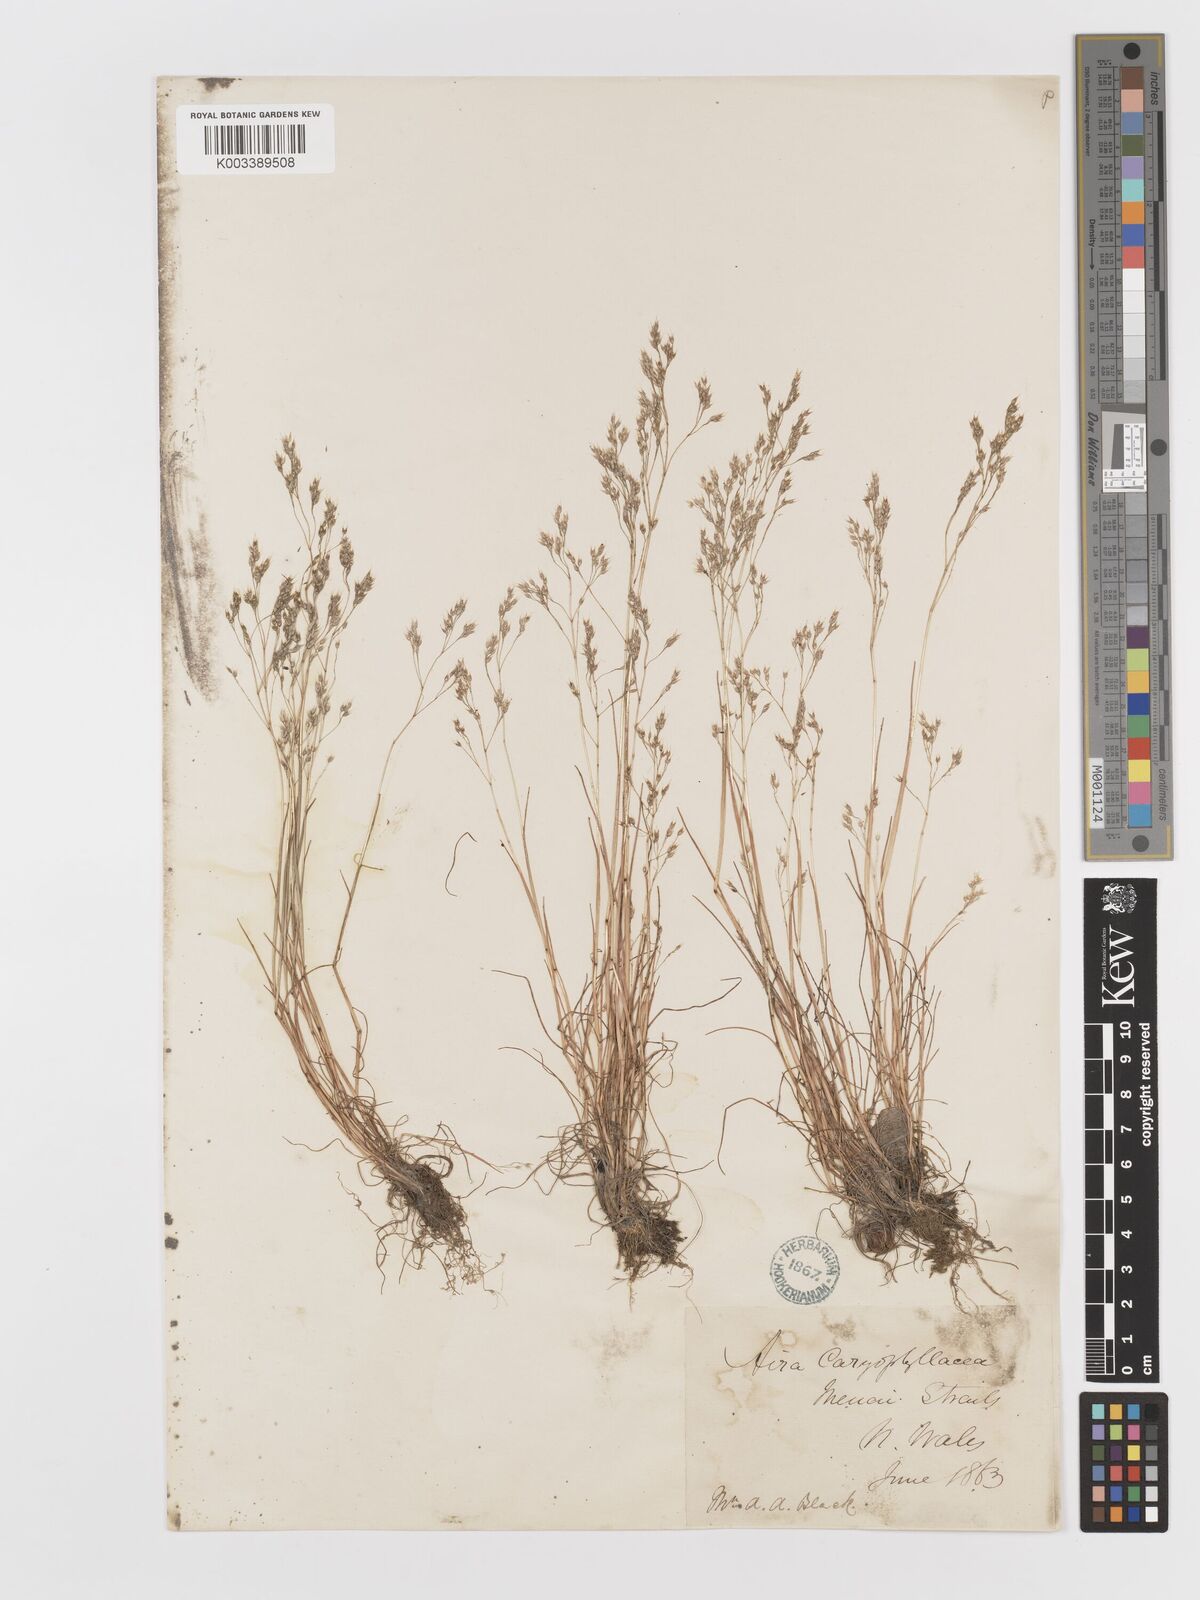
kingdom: Plantae
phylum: Tracheophyta
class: Liliopsida
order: Poales
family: Poaceae
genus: Aira
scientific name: Aira caryophyllea
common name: Silver hairgrass
